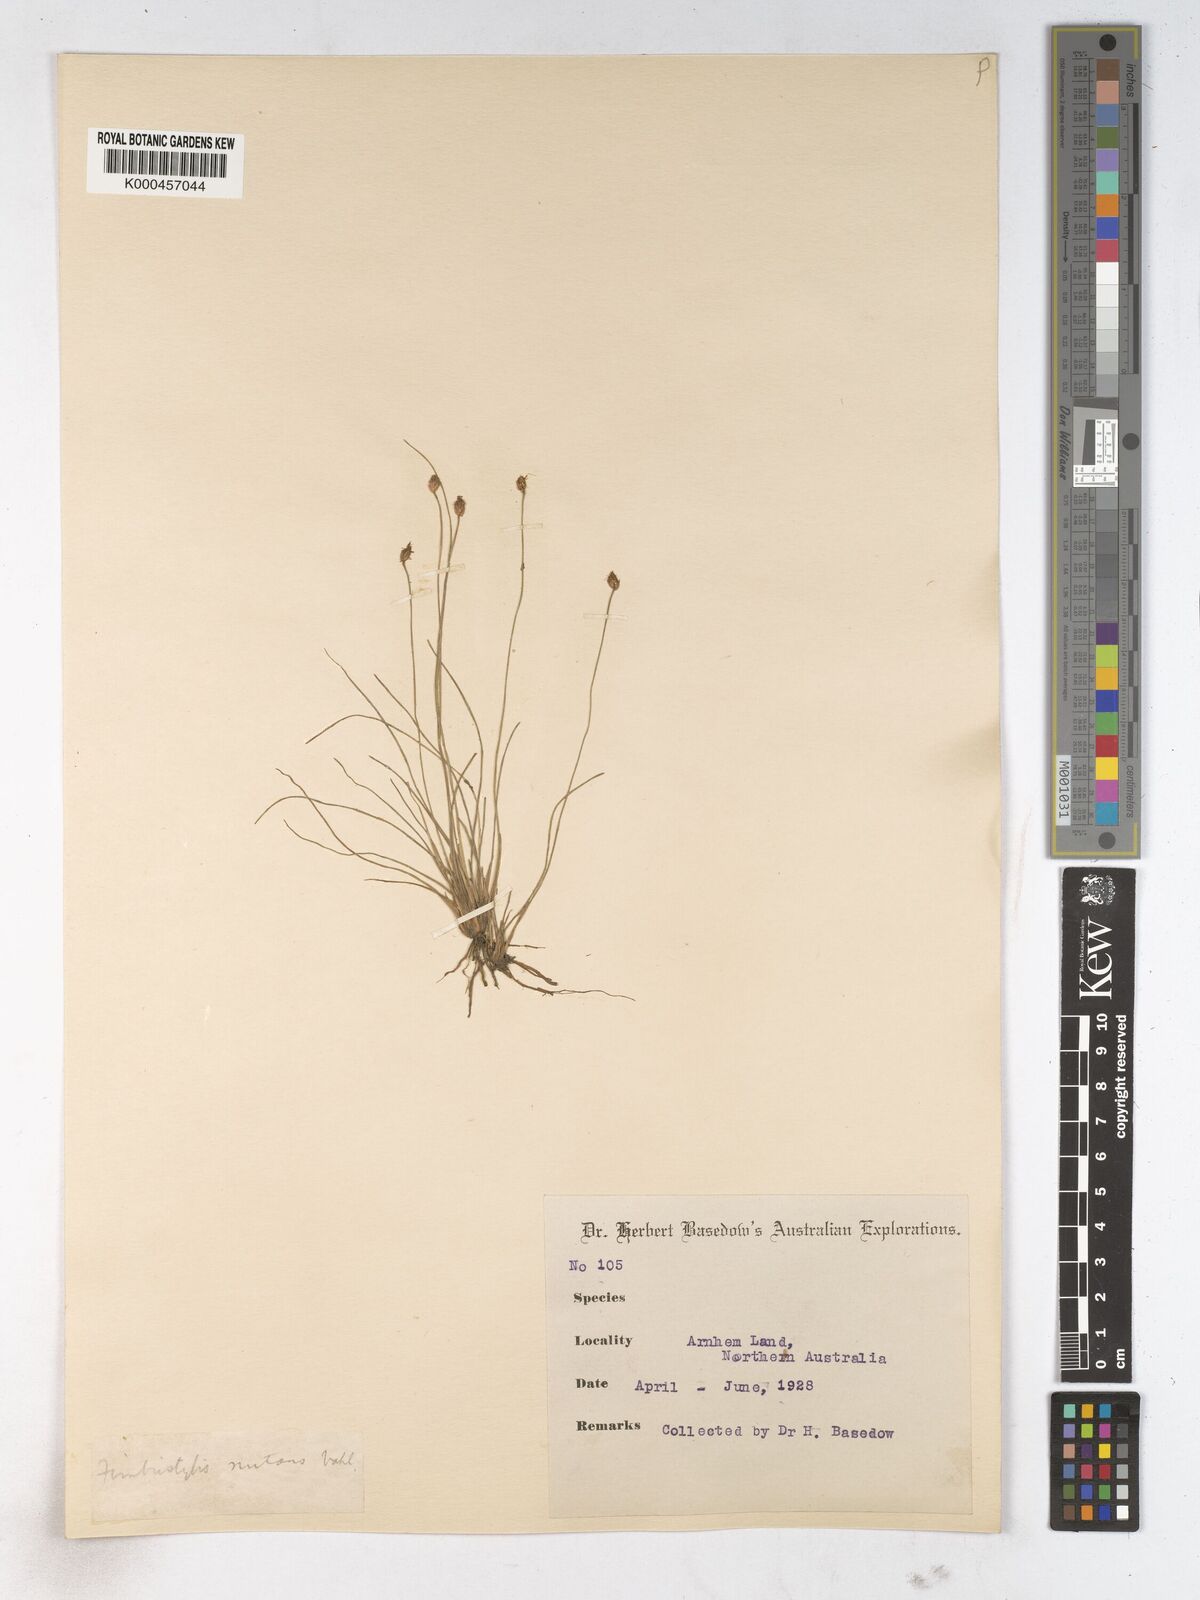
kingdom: Plantae
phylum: Tracheophyta
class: Liliopsida
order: Poales
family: Cyperaceae
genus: Fimbristylis
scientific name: Fimbristylis nutans
